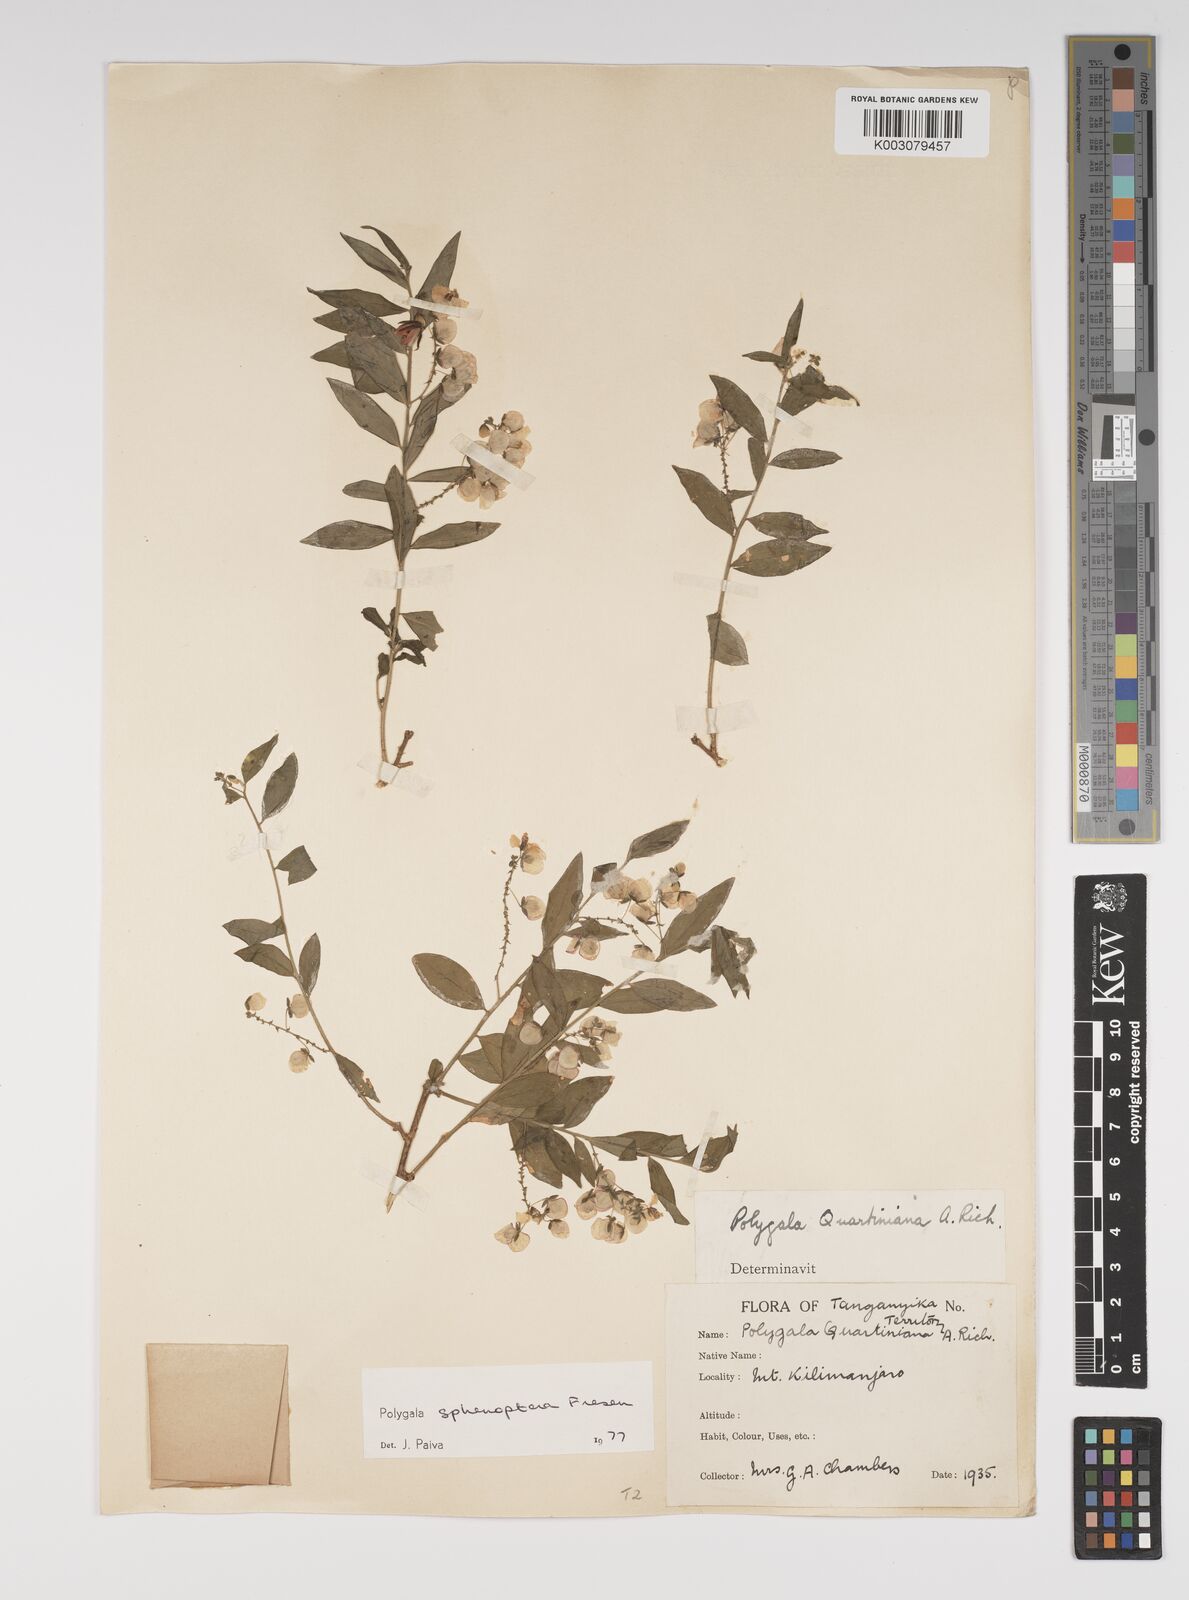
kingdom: Plantae
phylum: Tracheophyta
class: Magnoliopsida
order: Fabales
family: Polygalaceae
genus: Polygala
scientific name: Polygala sphenoptera
